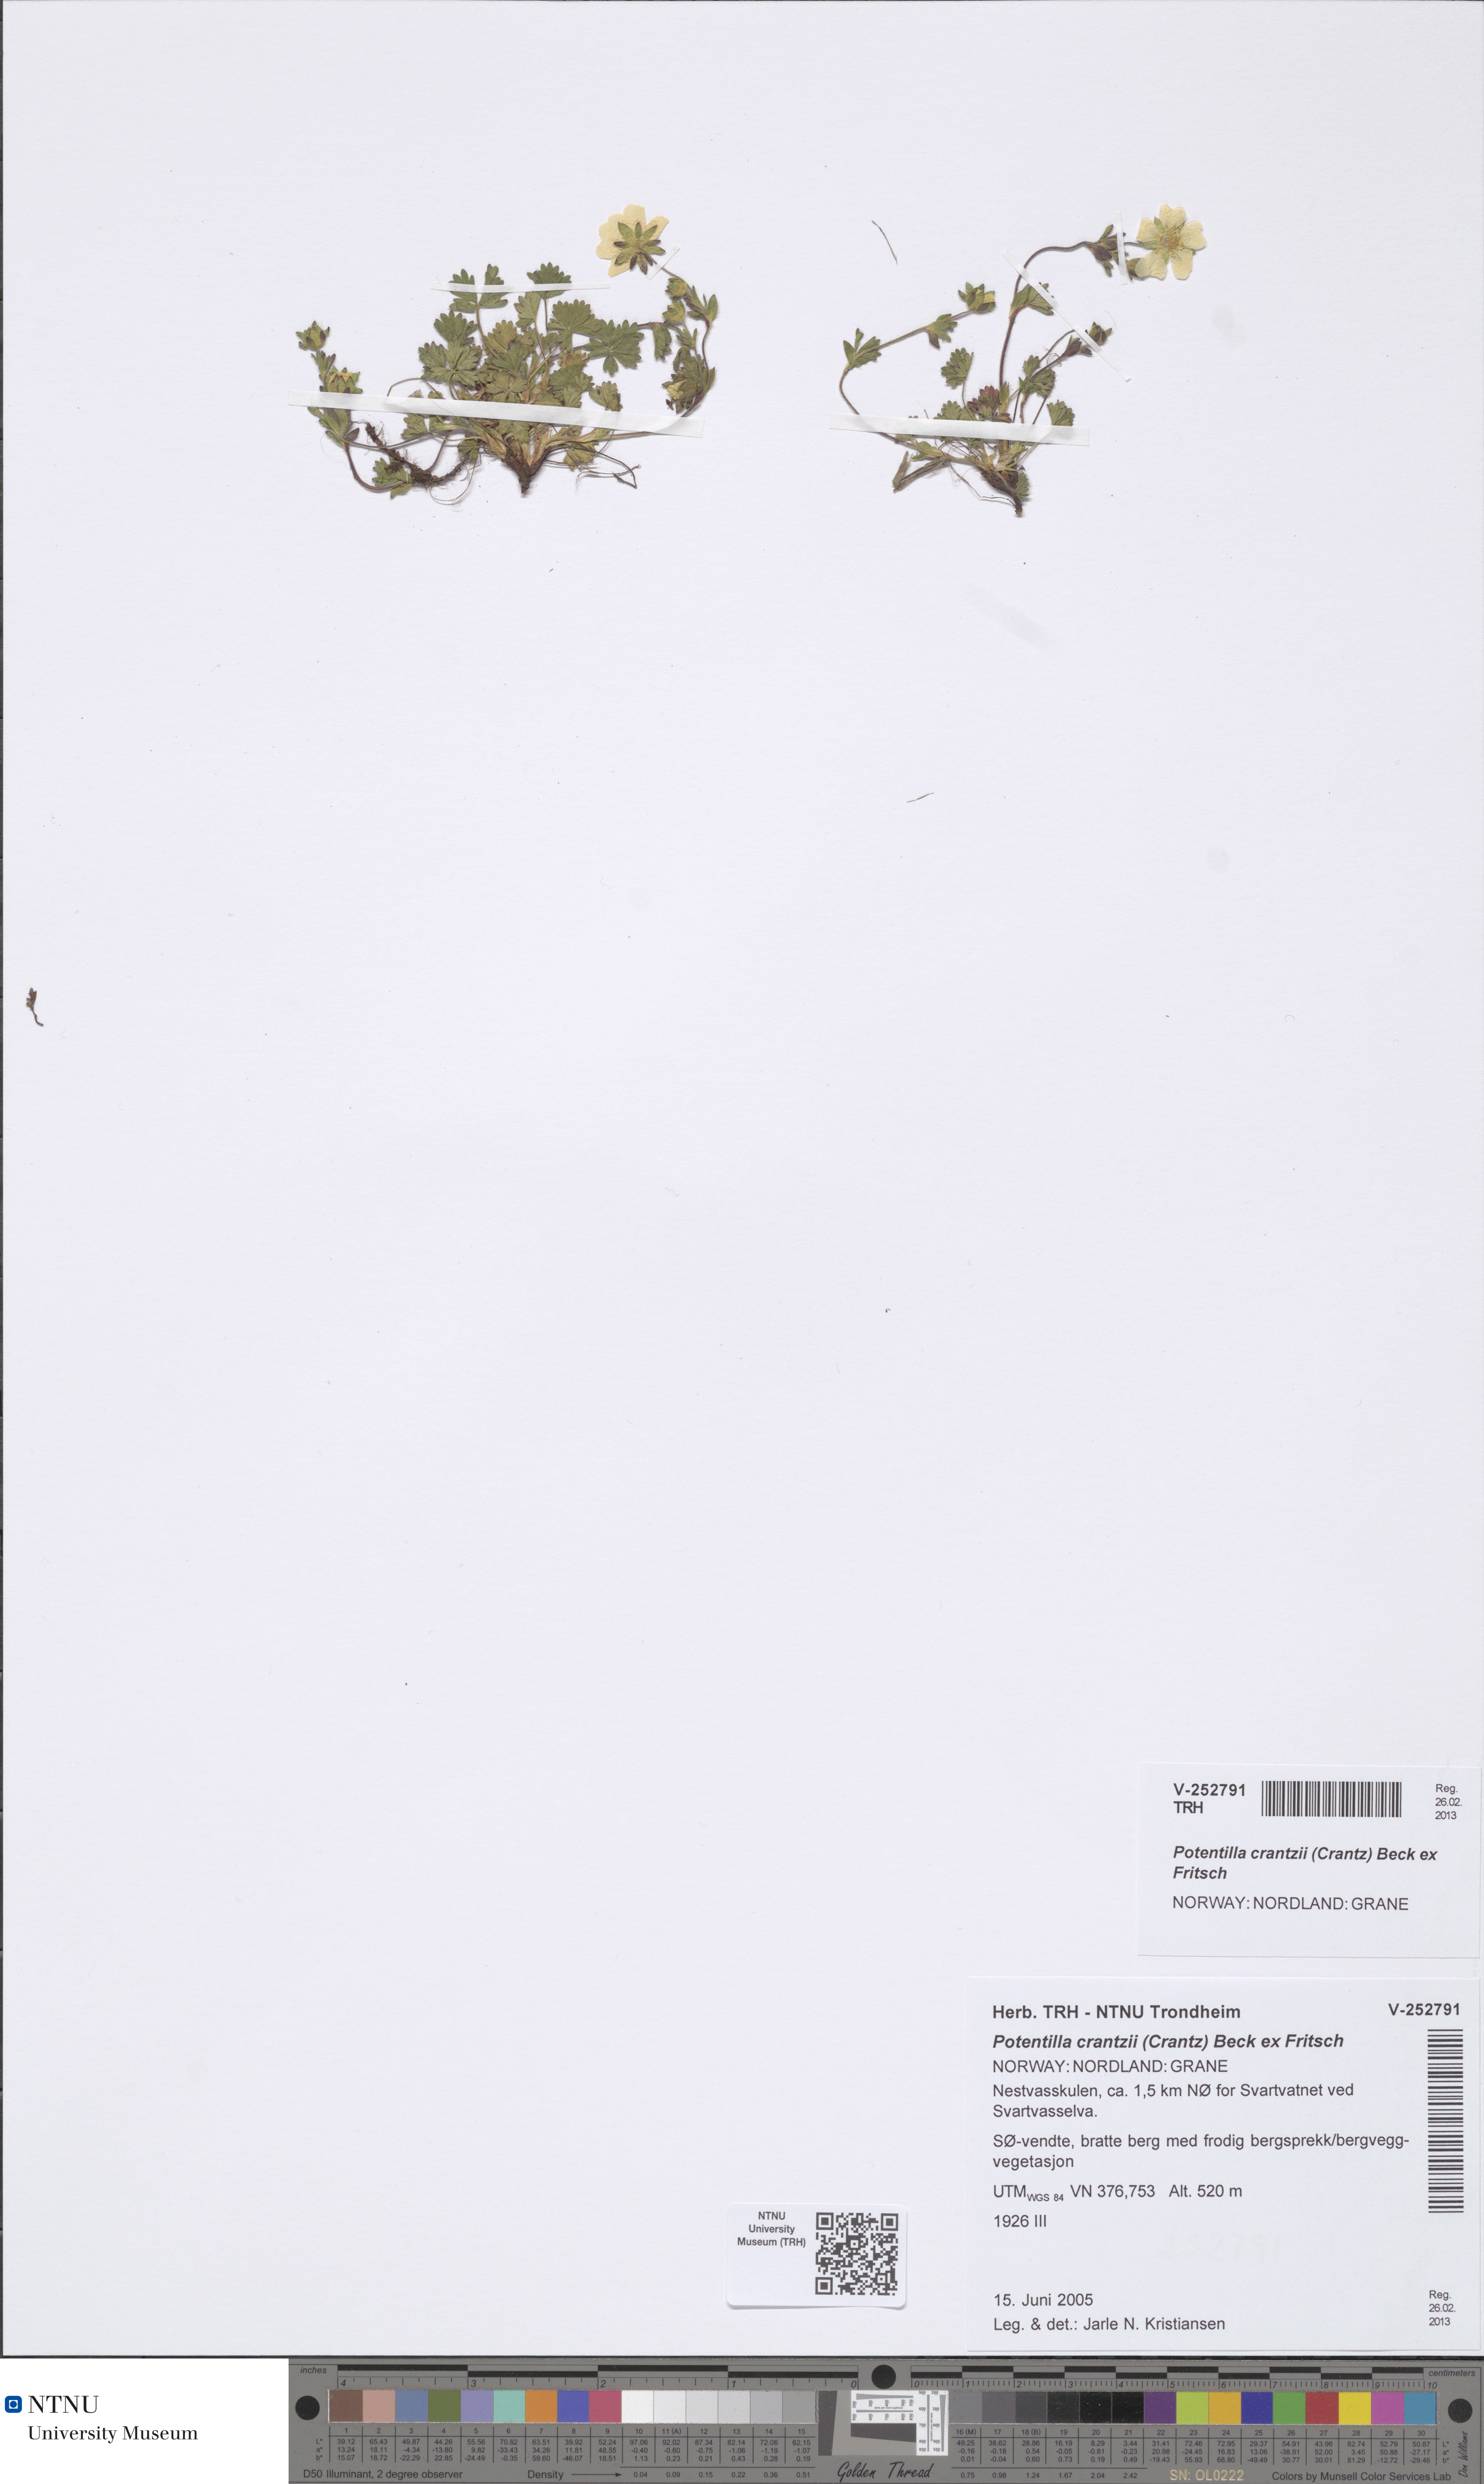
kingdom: Plantae
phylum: Tracheophyta
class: Magnoliopsida
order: Rosales
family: Rosaceae
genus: Potentilla
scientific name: Potentilla crantzii
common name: Alpine cinquefoil
